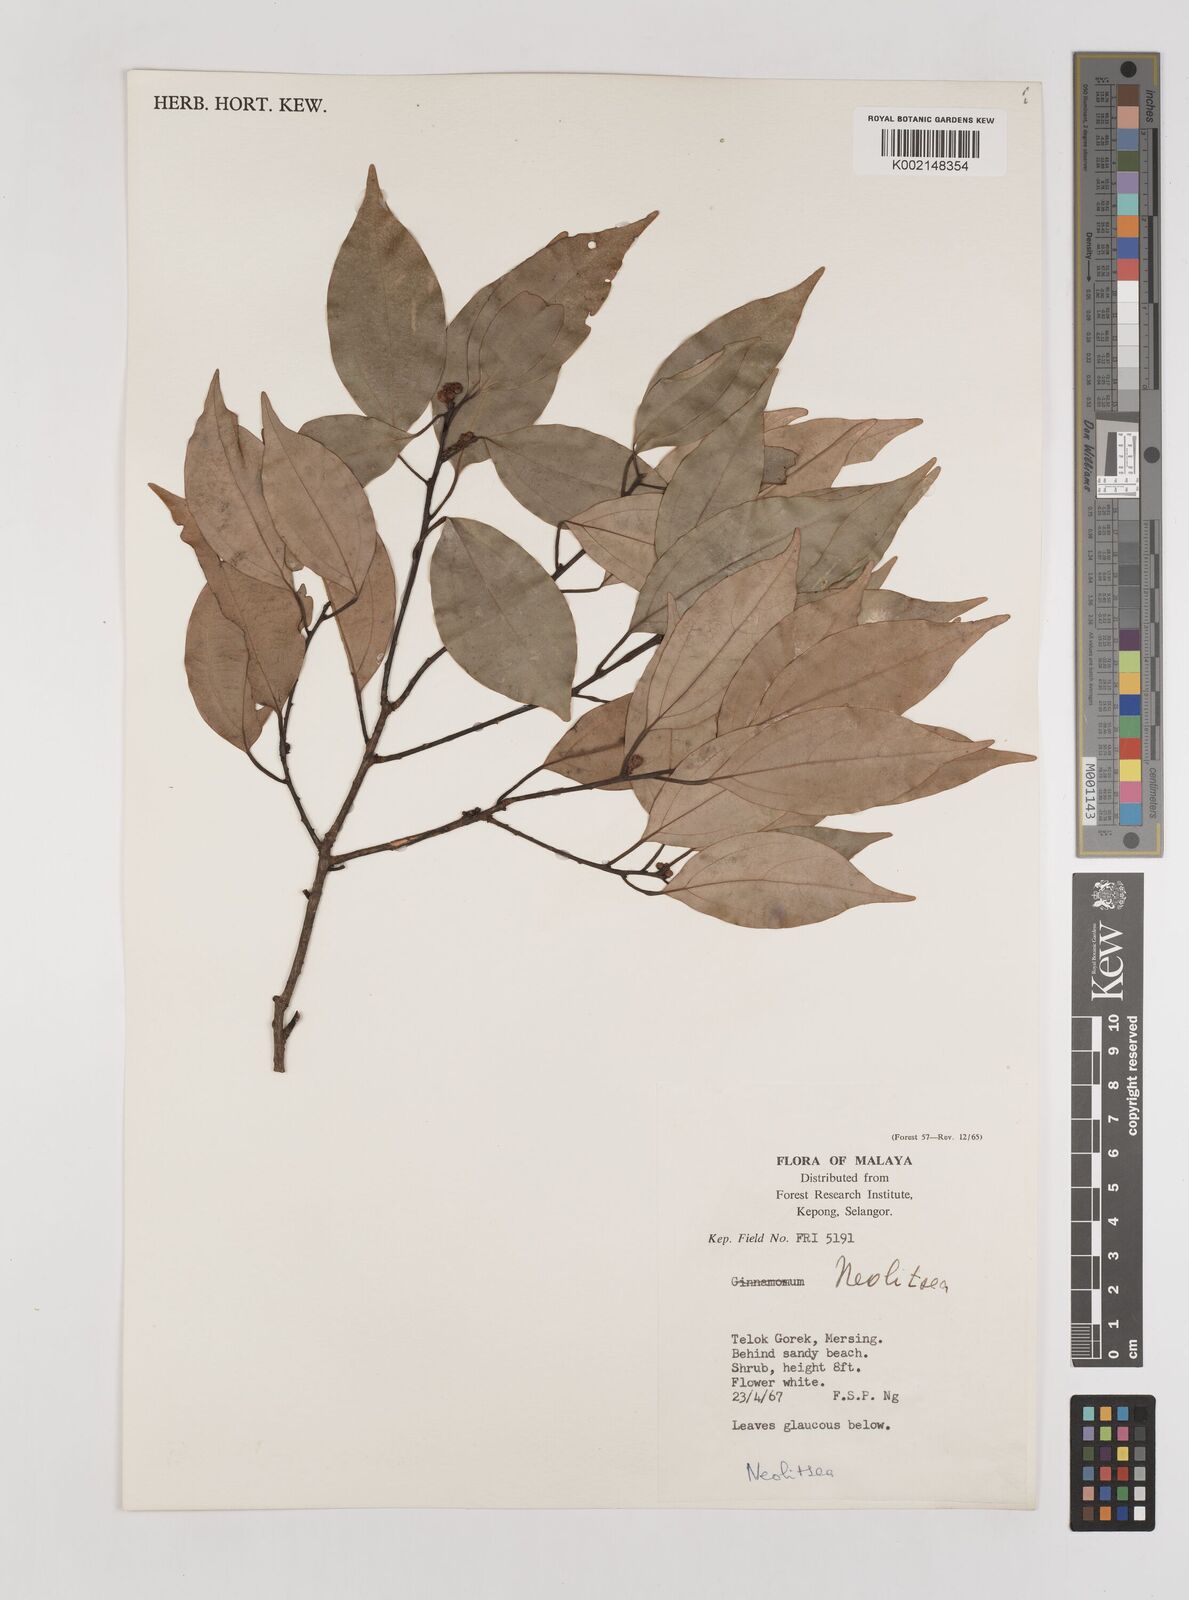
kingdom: Plantae
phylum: Tracheophyta
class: Magnoliopsida
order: Laurales
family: Lauraceae
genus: Neolitsea
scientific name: Neolitsea
